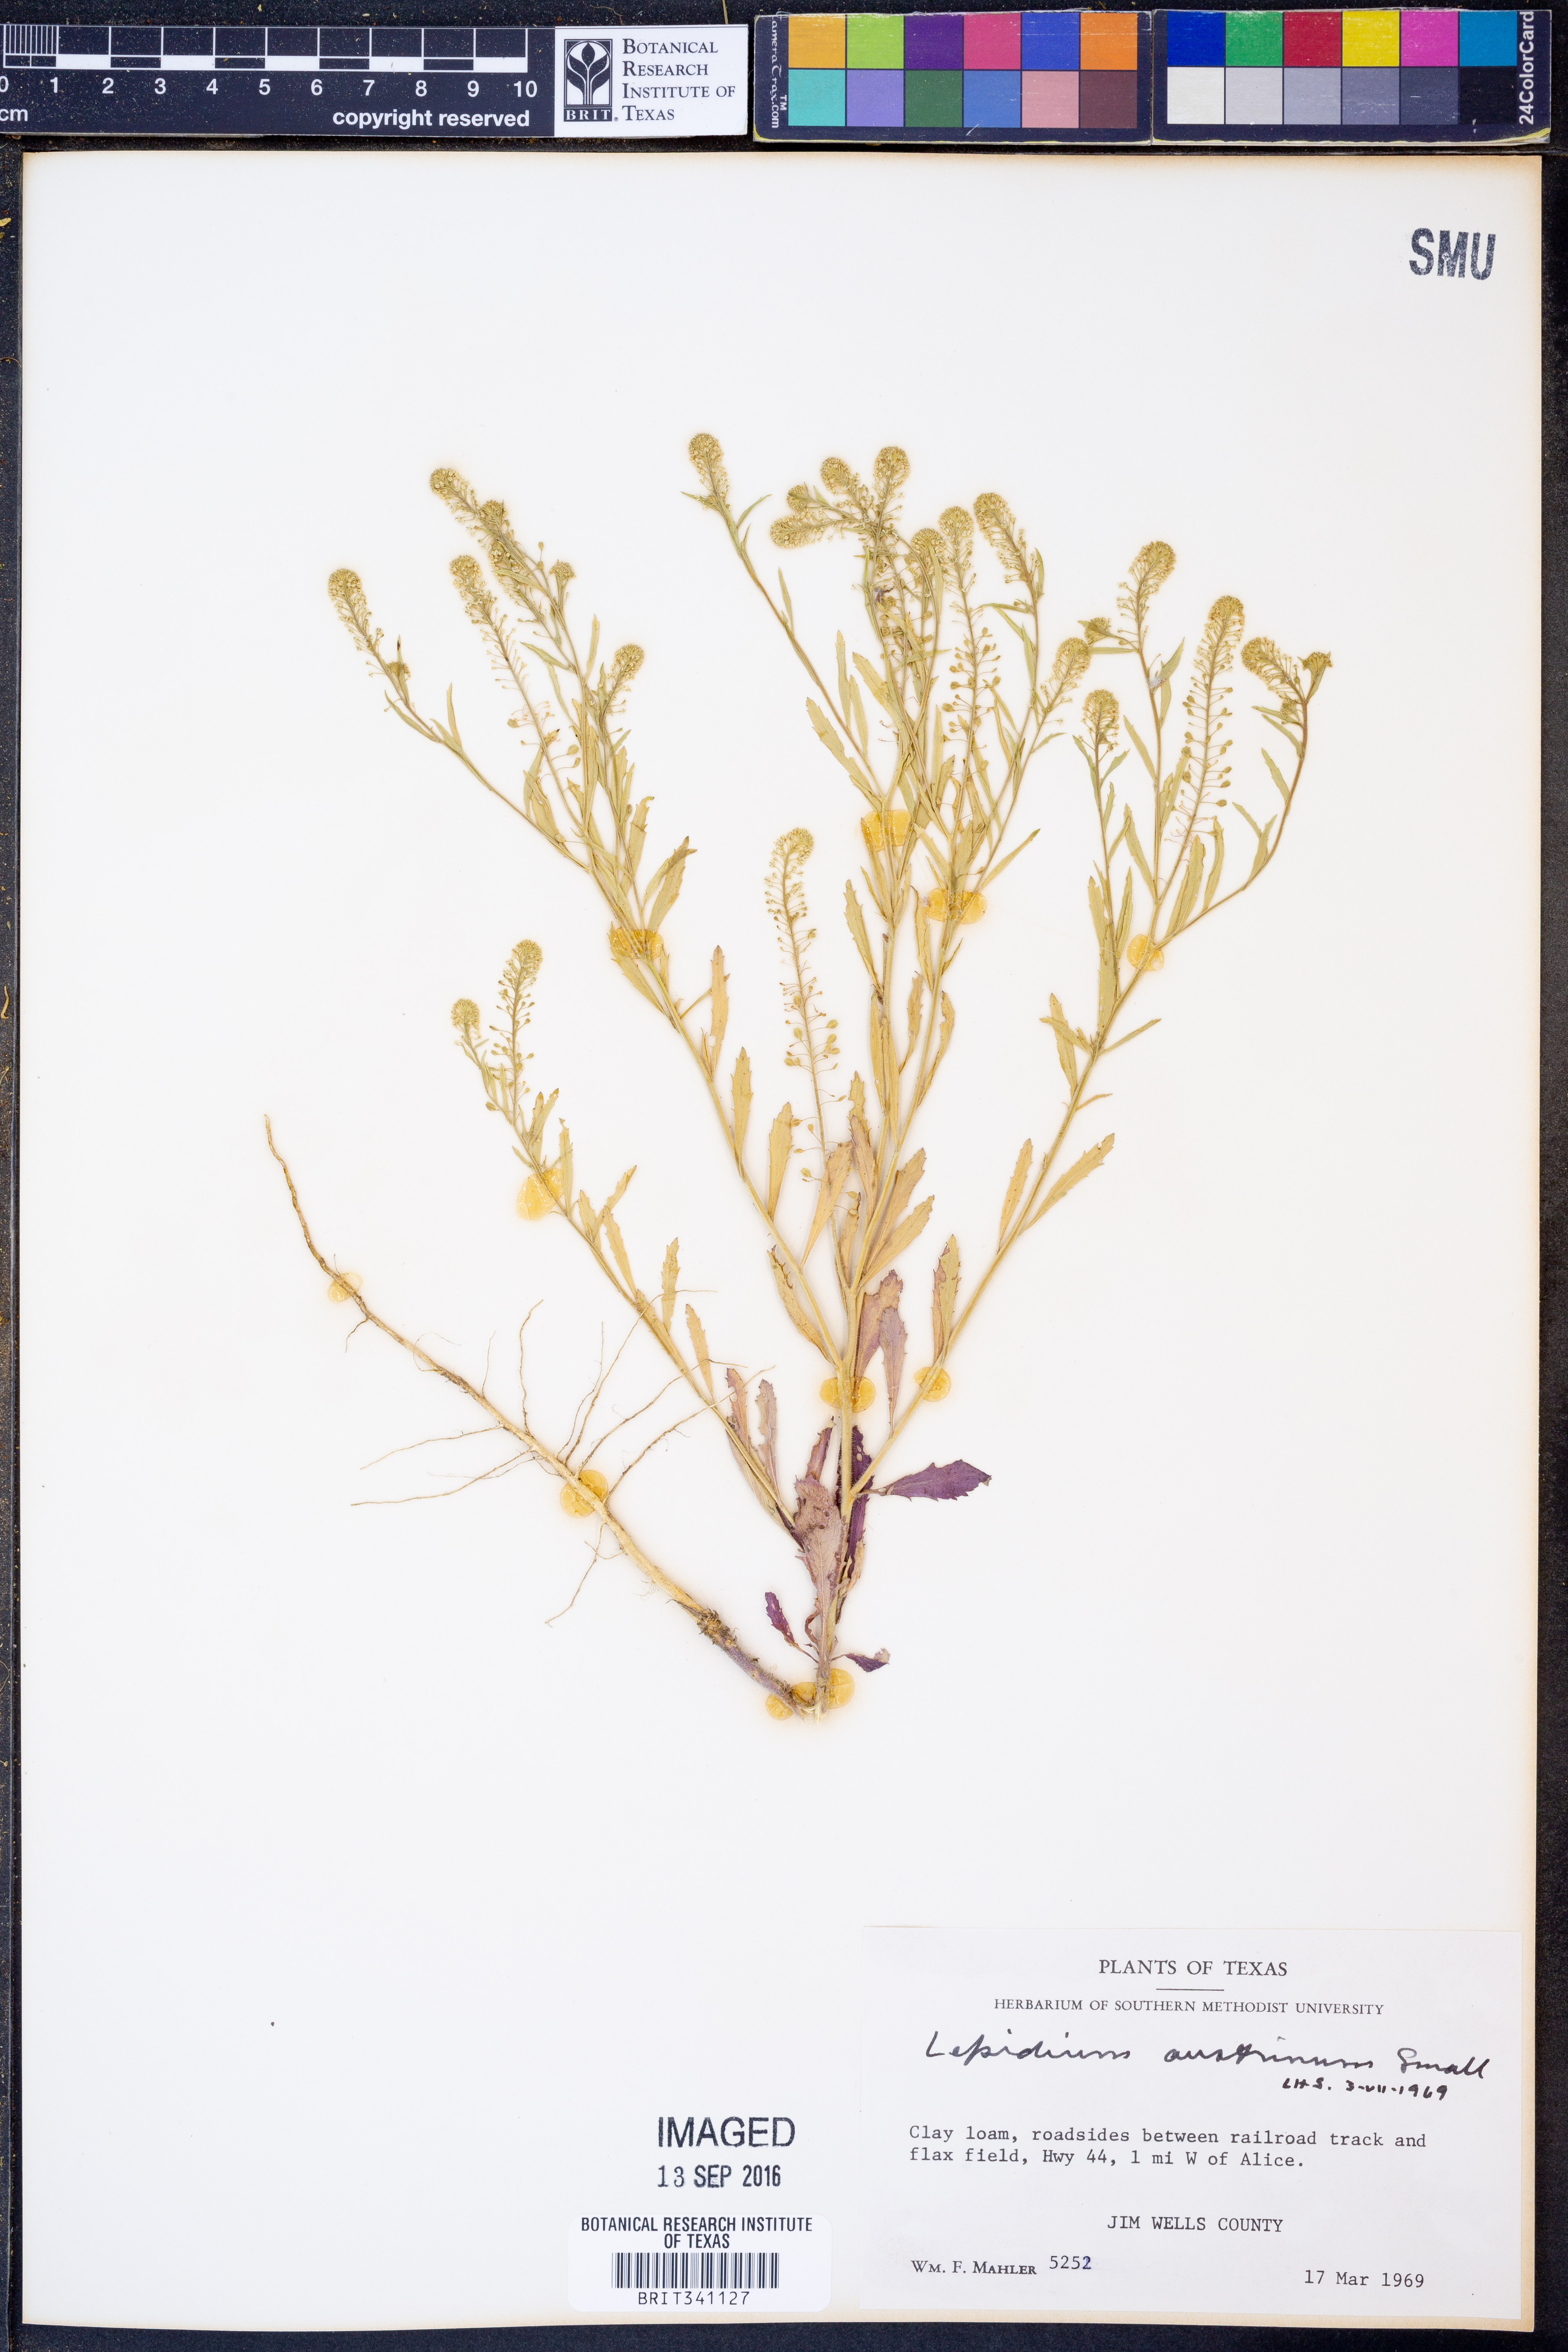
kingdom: Plantae
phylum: Tracheophyta
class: Magnoliopsida
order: Brassicales
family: Brassicaceae
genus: Lepidium
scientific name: Lepidium austrinum
